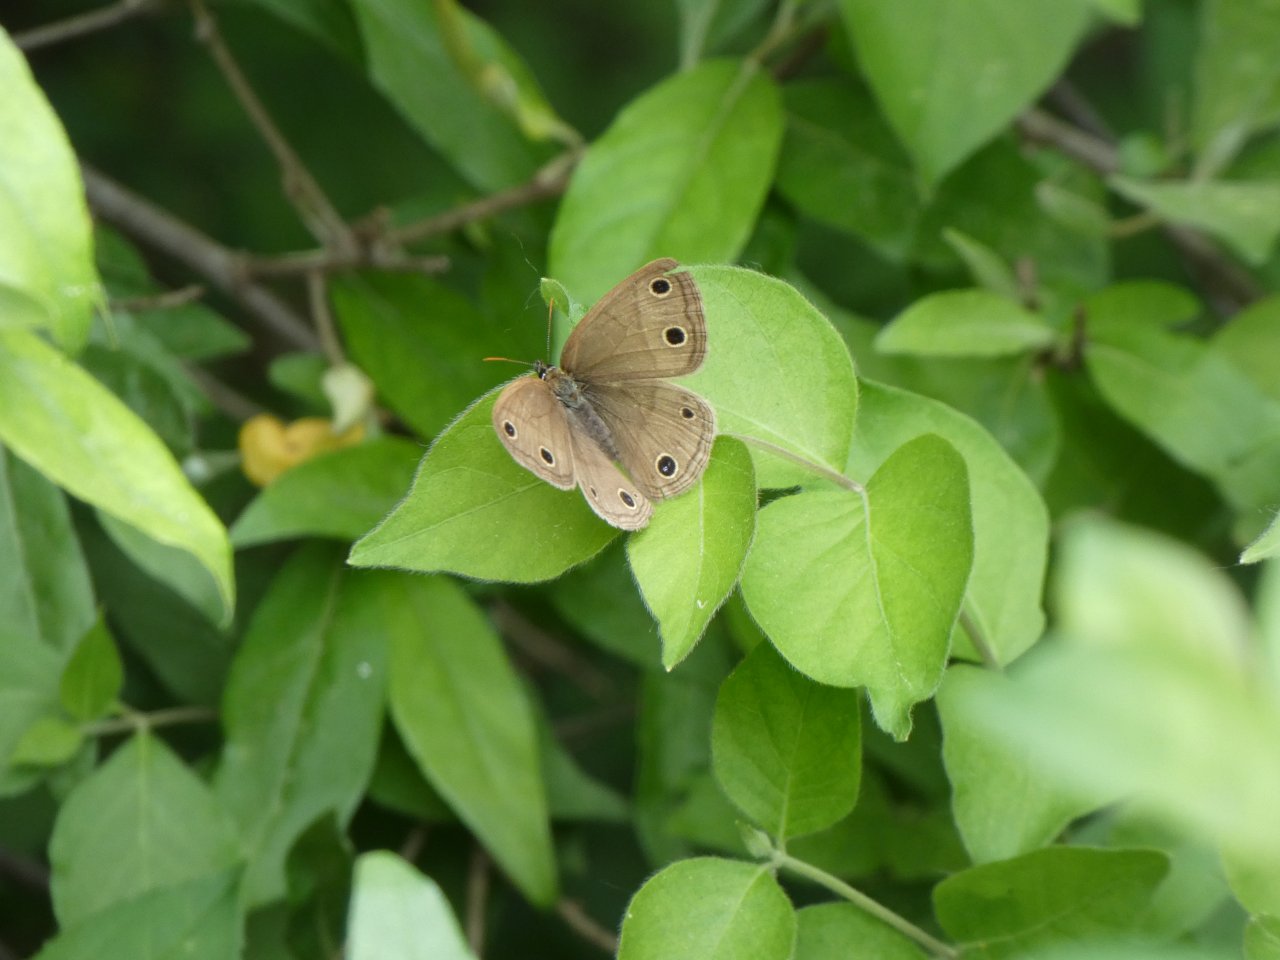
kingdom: Animalia
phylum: Arthropoda
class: Insecta
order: Lepidoptera
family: Nymphalidae
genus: Euptychia
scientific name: Euptychia cymela
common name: Little Wood Satyr
